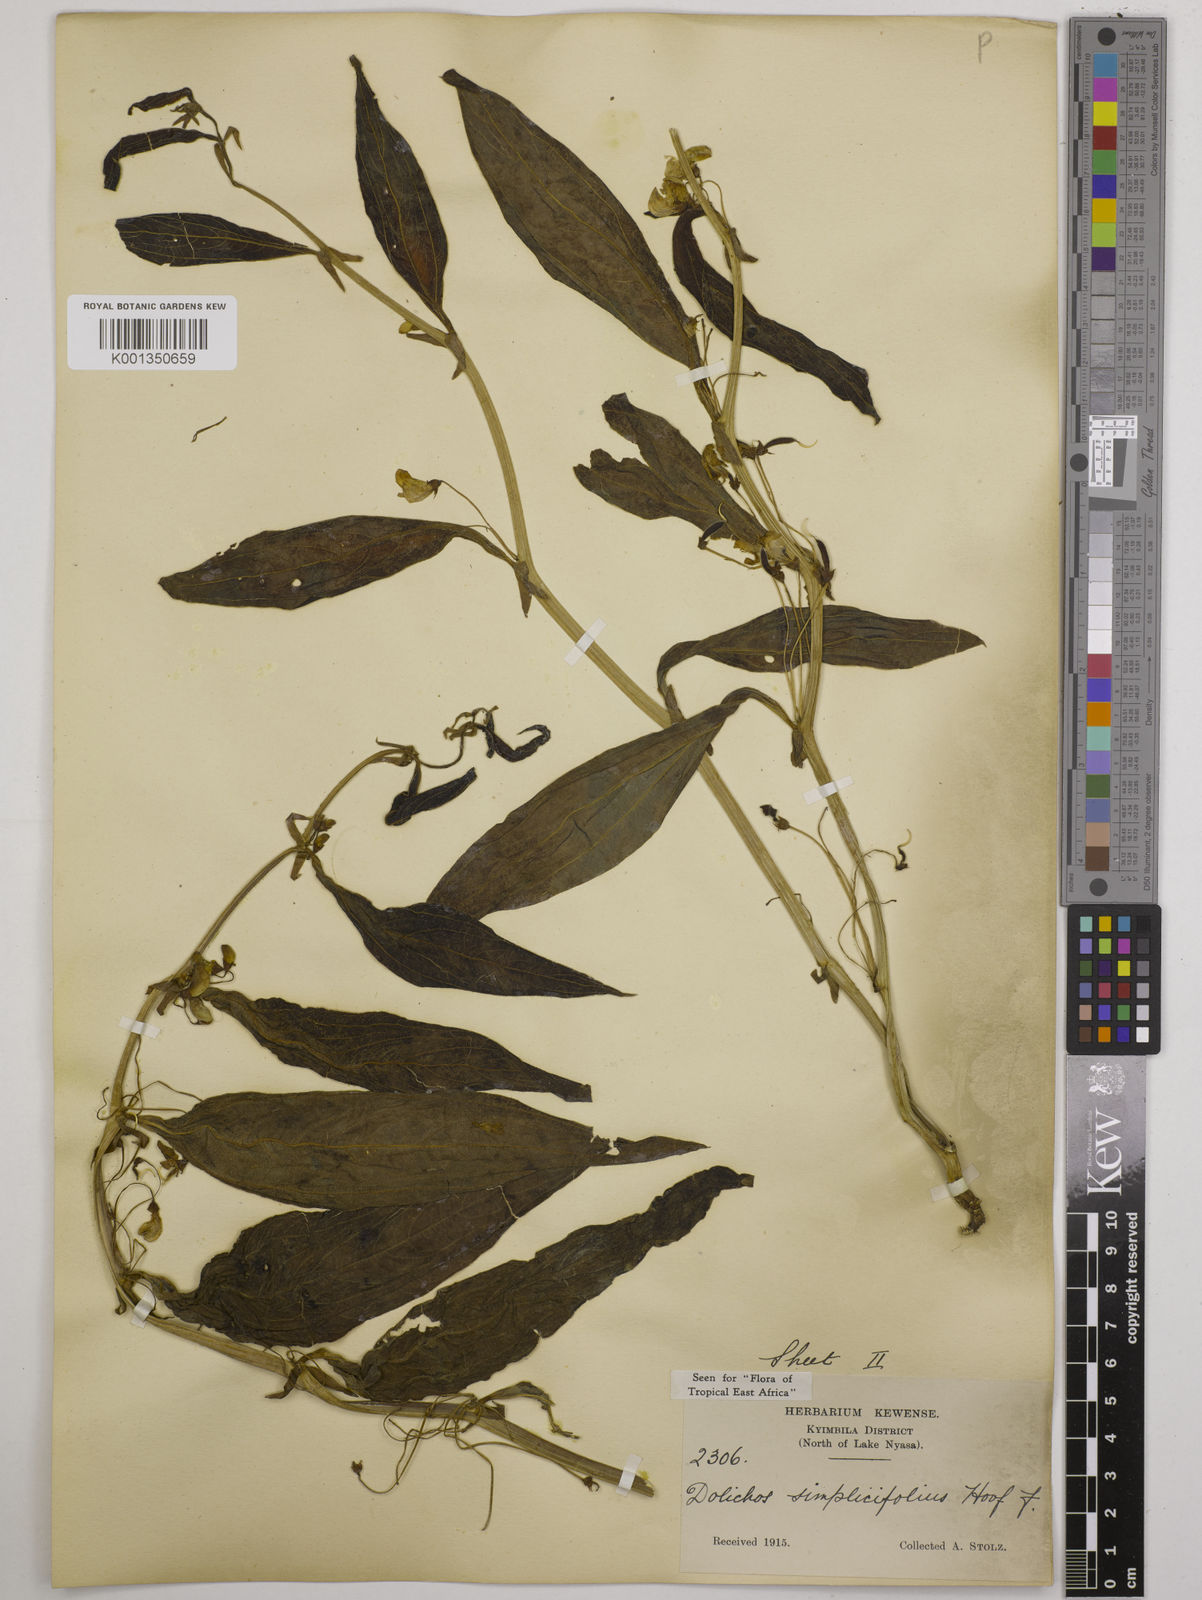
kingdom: Plantae
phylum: Tracheophyta
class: Magnoliopsida
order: Fabales
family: Fabaceae
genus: Dolichos
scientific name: Dolichos simplicifolius
